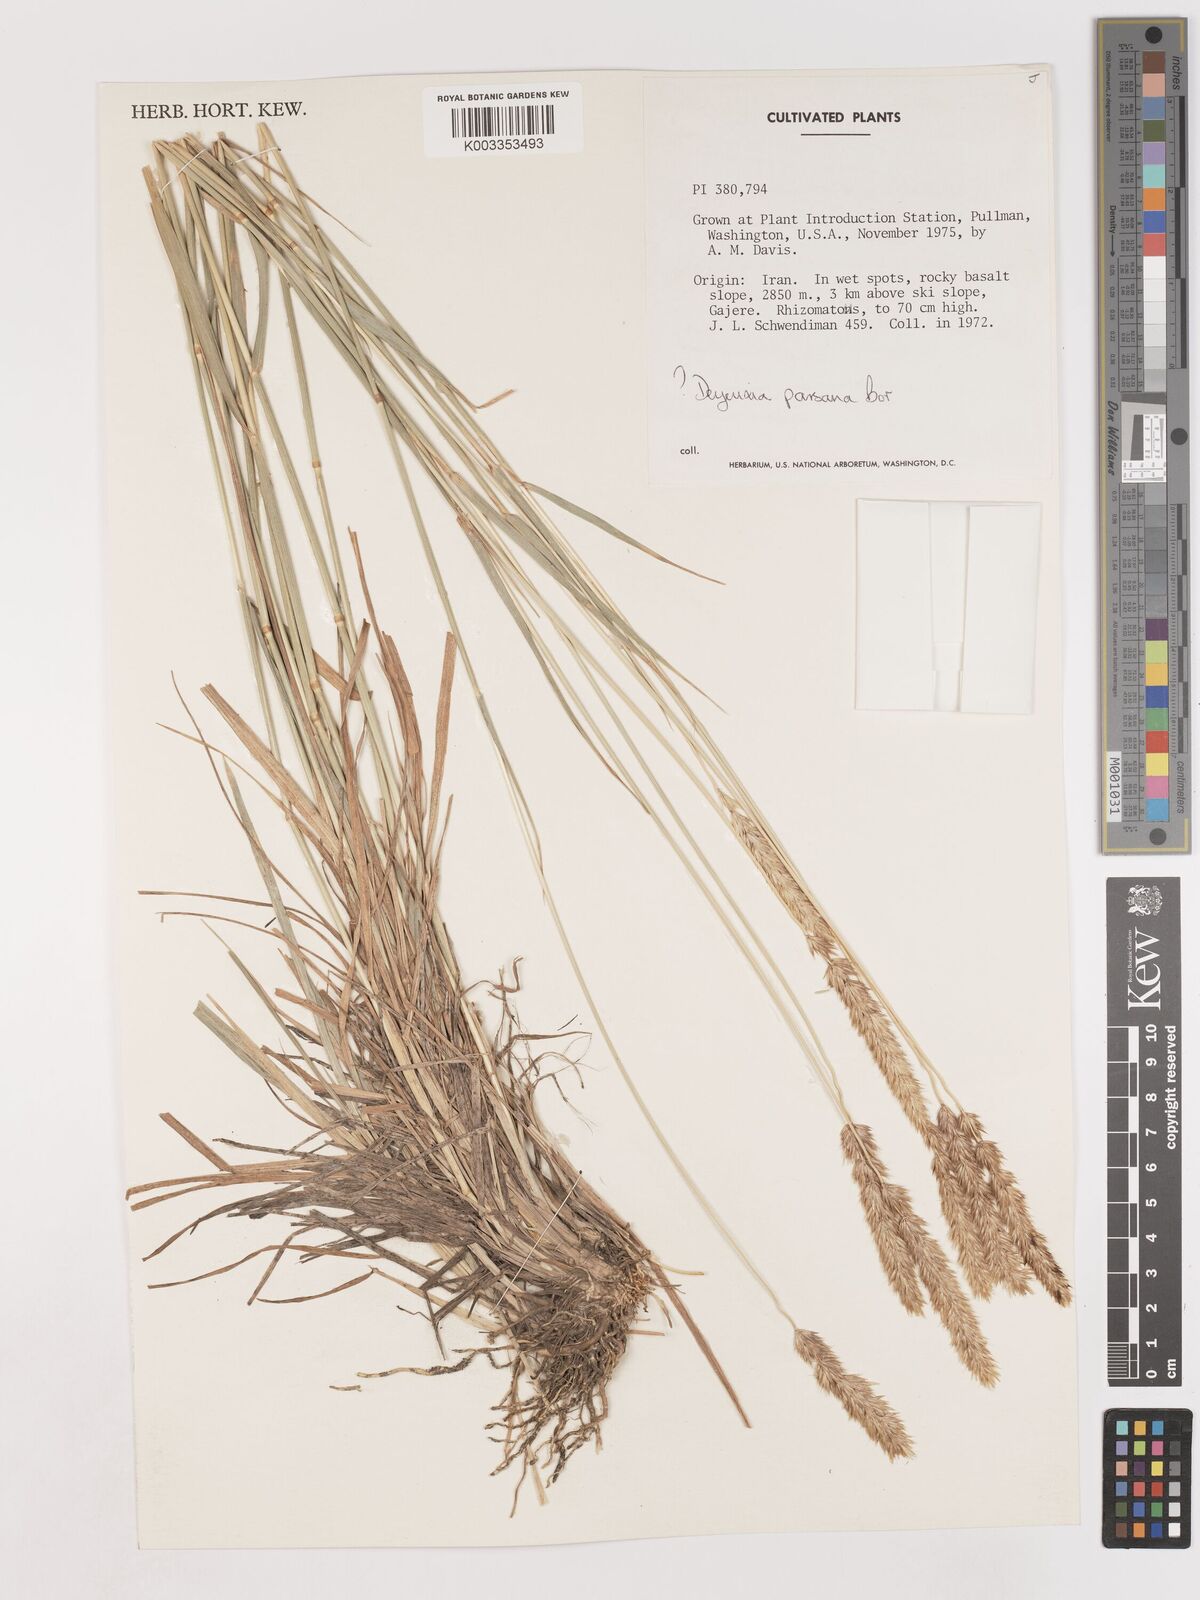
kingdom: Plantae
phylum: Tracheophyta
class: Liliopsida
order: Poales
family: Poaceae
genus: Calamagrostis
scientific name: Calamagrostis parsana
